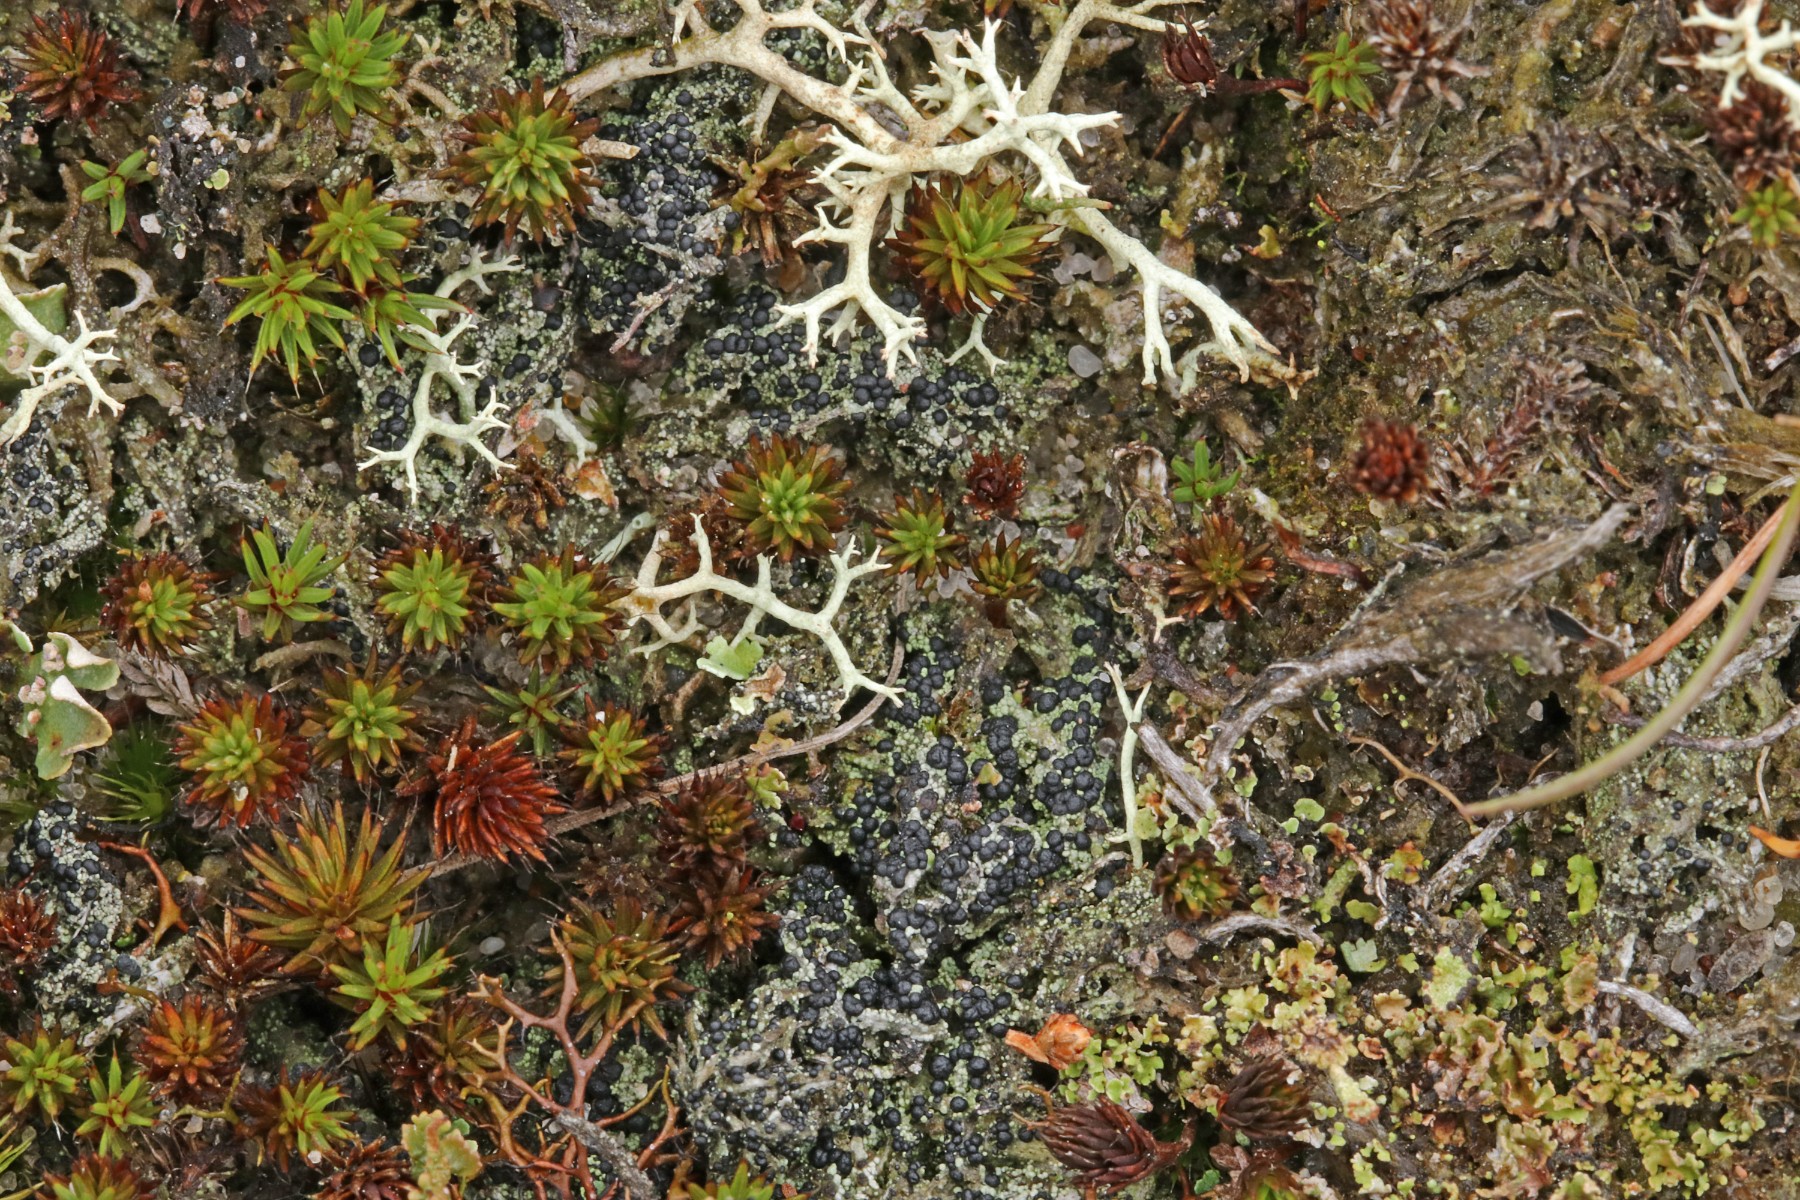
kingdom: Fungi
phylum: Ascomycota
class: Lecanoromycetes
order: Lecanorales
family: Byssolomataceae
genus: Micarea
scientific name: Micarea lignaria
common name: tørve-knaplav
